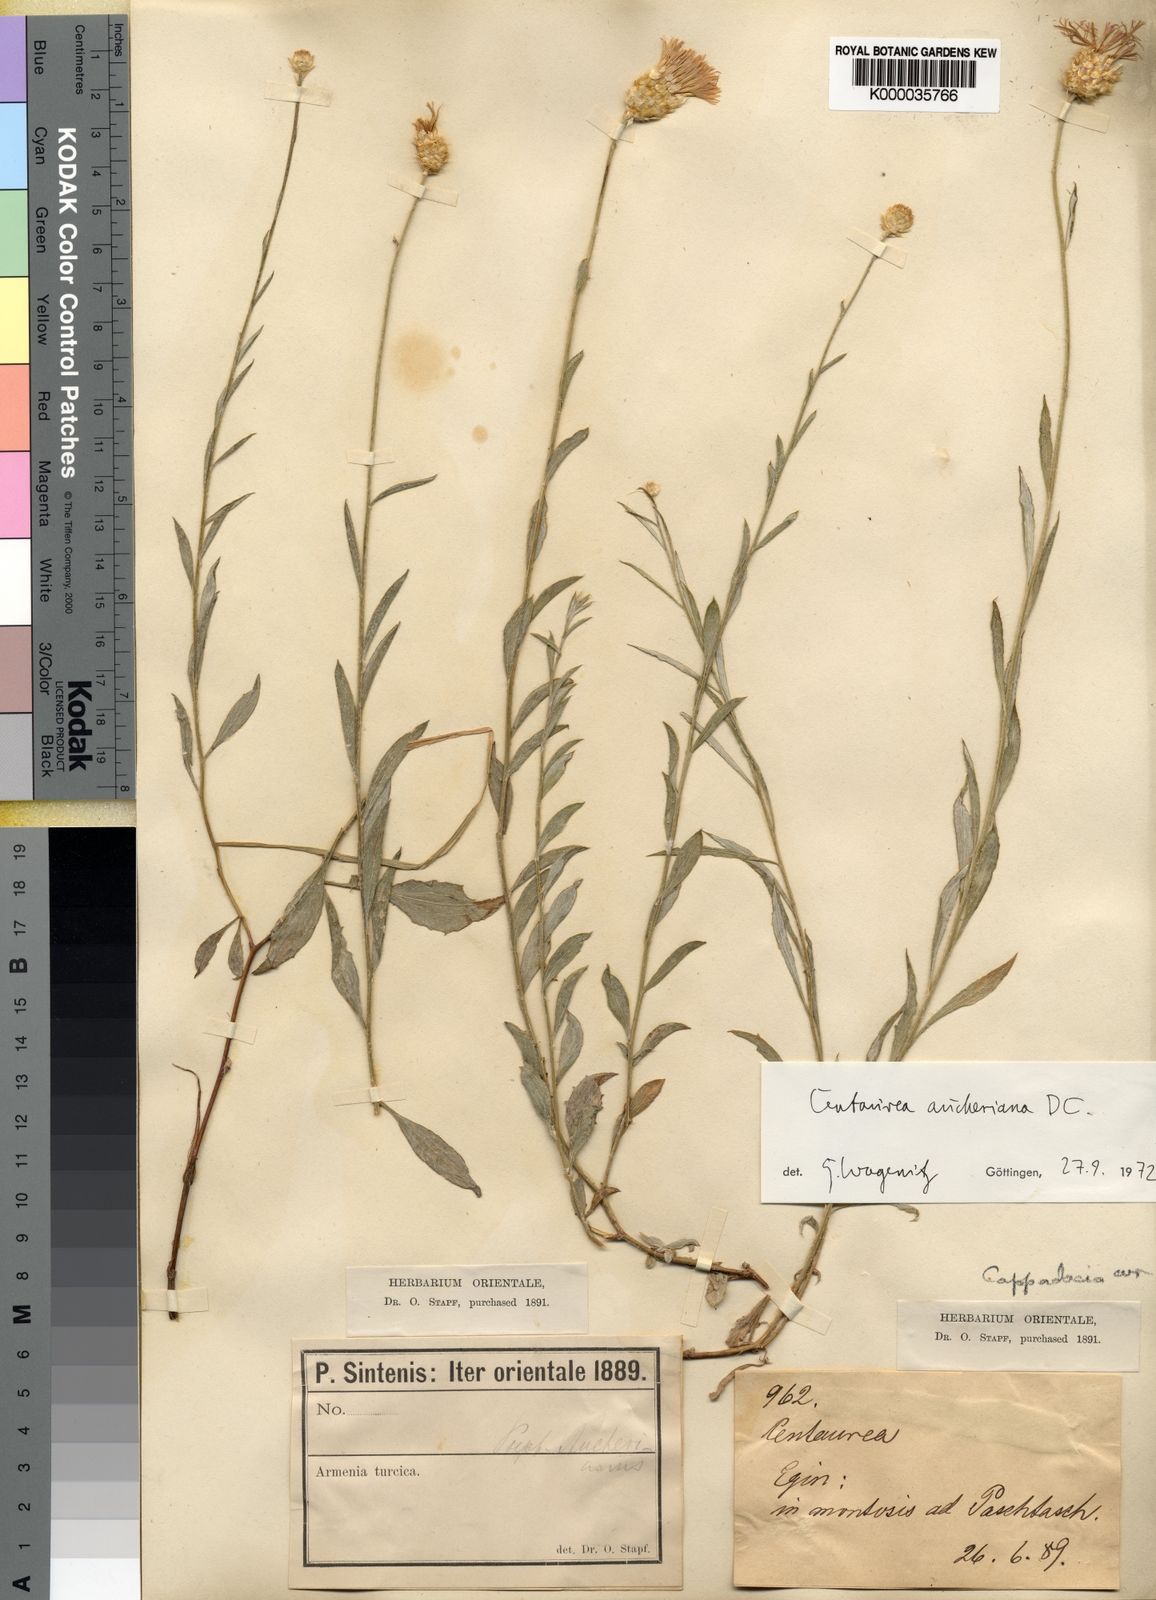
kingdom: Plantae
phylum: Tracheophyta
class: Magnoliopsida
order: Asterales
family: Asteraceae
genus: Centaurea
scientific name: Centaurea aucheri
